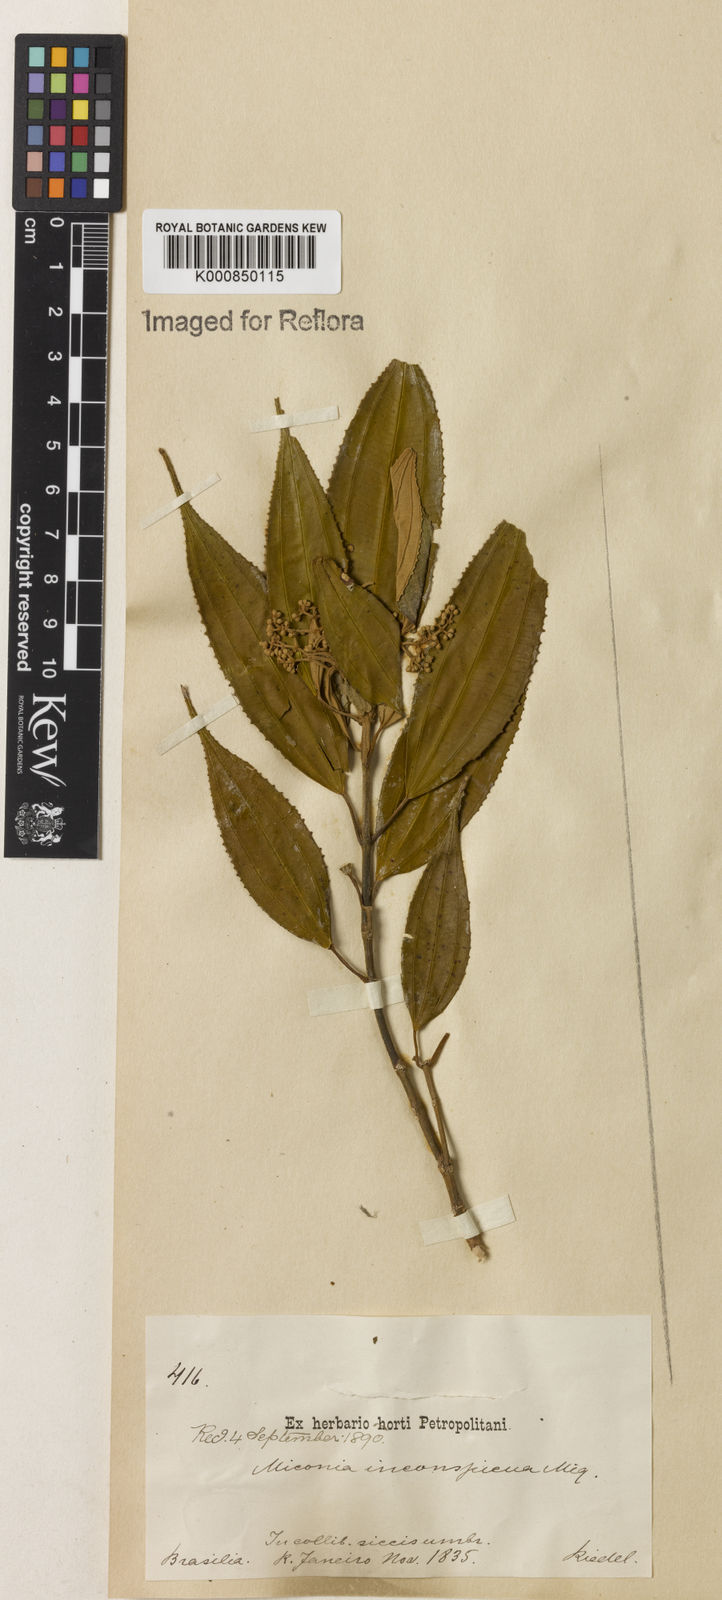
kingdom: Plantae
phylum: Tracheophyta
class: Magnoliopsida
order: Myrtales
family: Melastomataceae
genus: Miconia
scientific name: Miconia inconspicua
